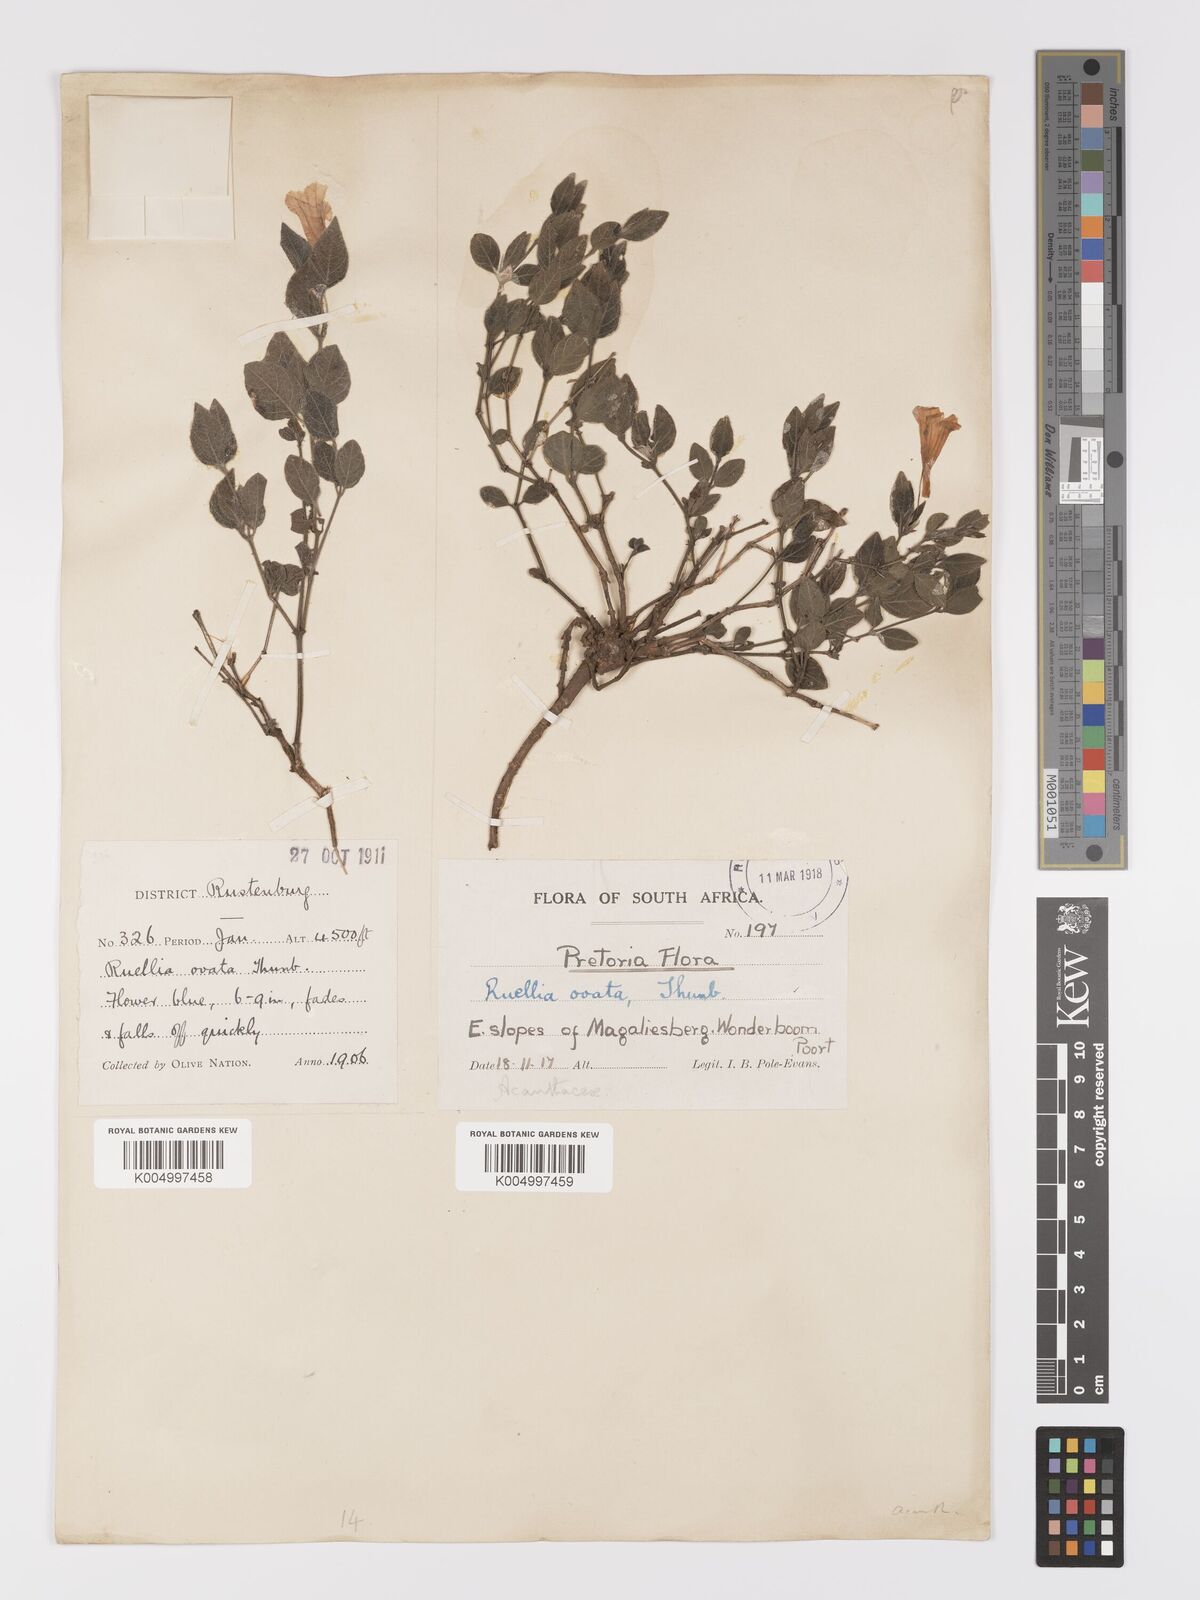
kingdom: Plantae
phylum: Tracheophyta
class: Magnoliopsida
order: Lamiales
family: Acanthaceae
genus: Ruellia
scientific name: Ruellia cordata
